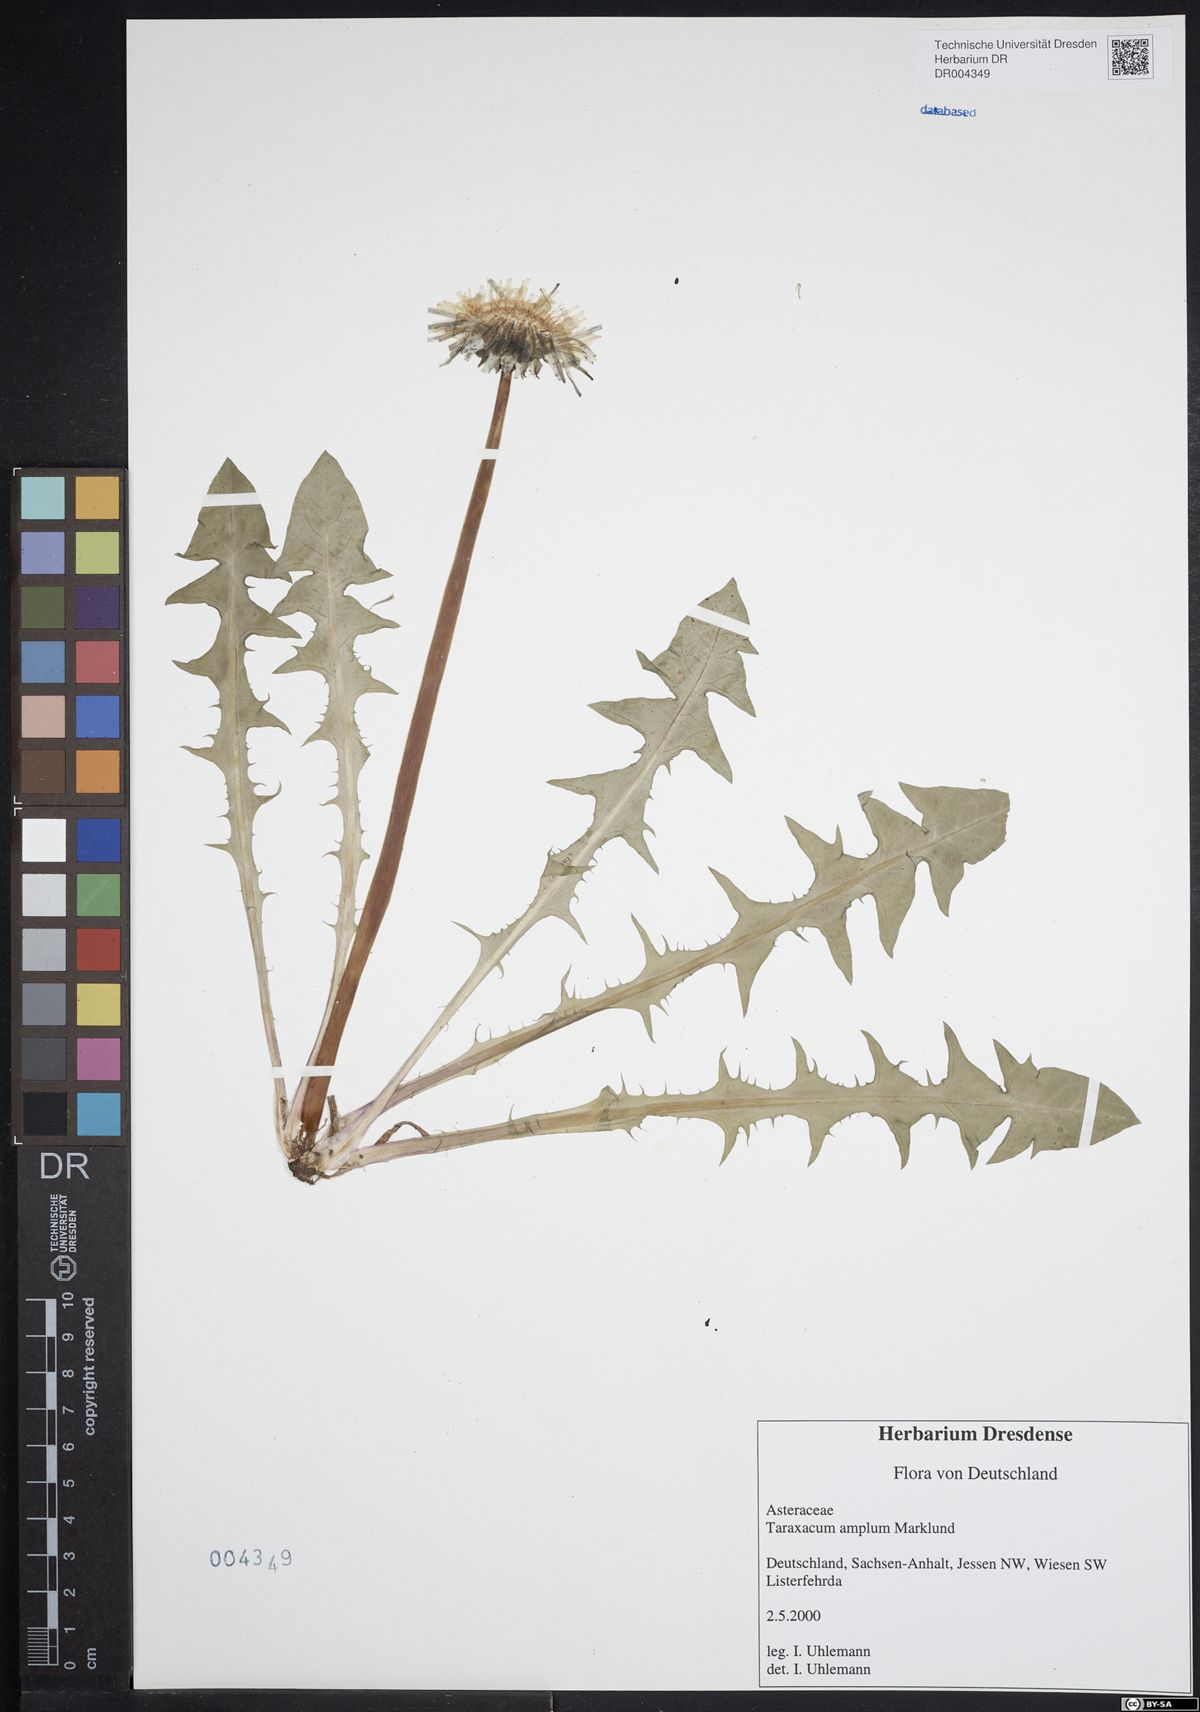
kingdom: Plantae
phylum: Tracheophyta
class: Magnoliopsida
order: Asterales
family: Asteraceae
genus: Taraxacum
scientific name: Taraxacum amplum
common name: Toothed dandelion
